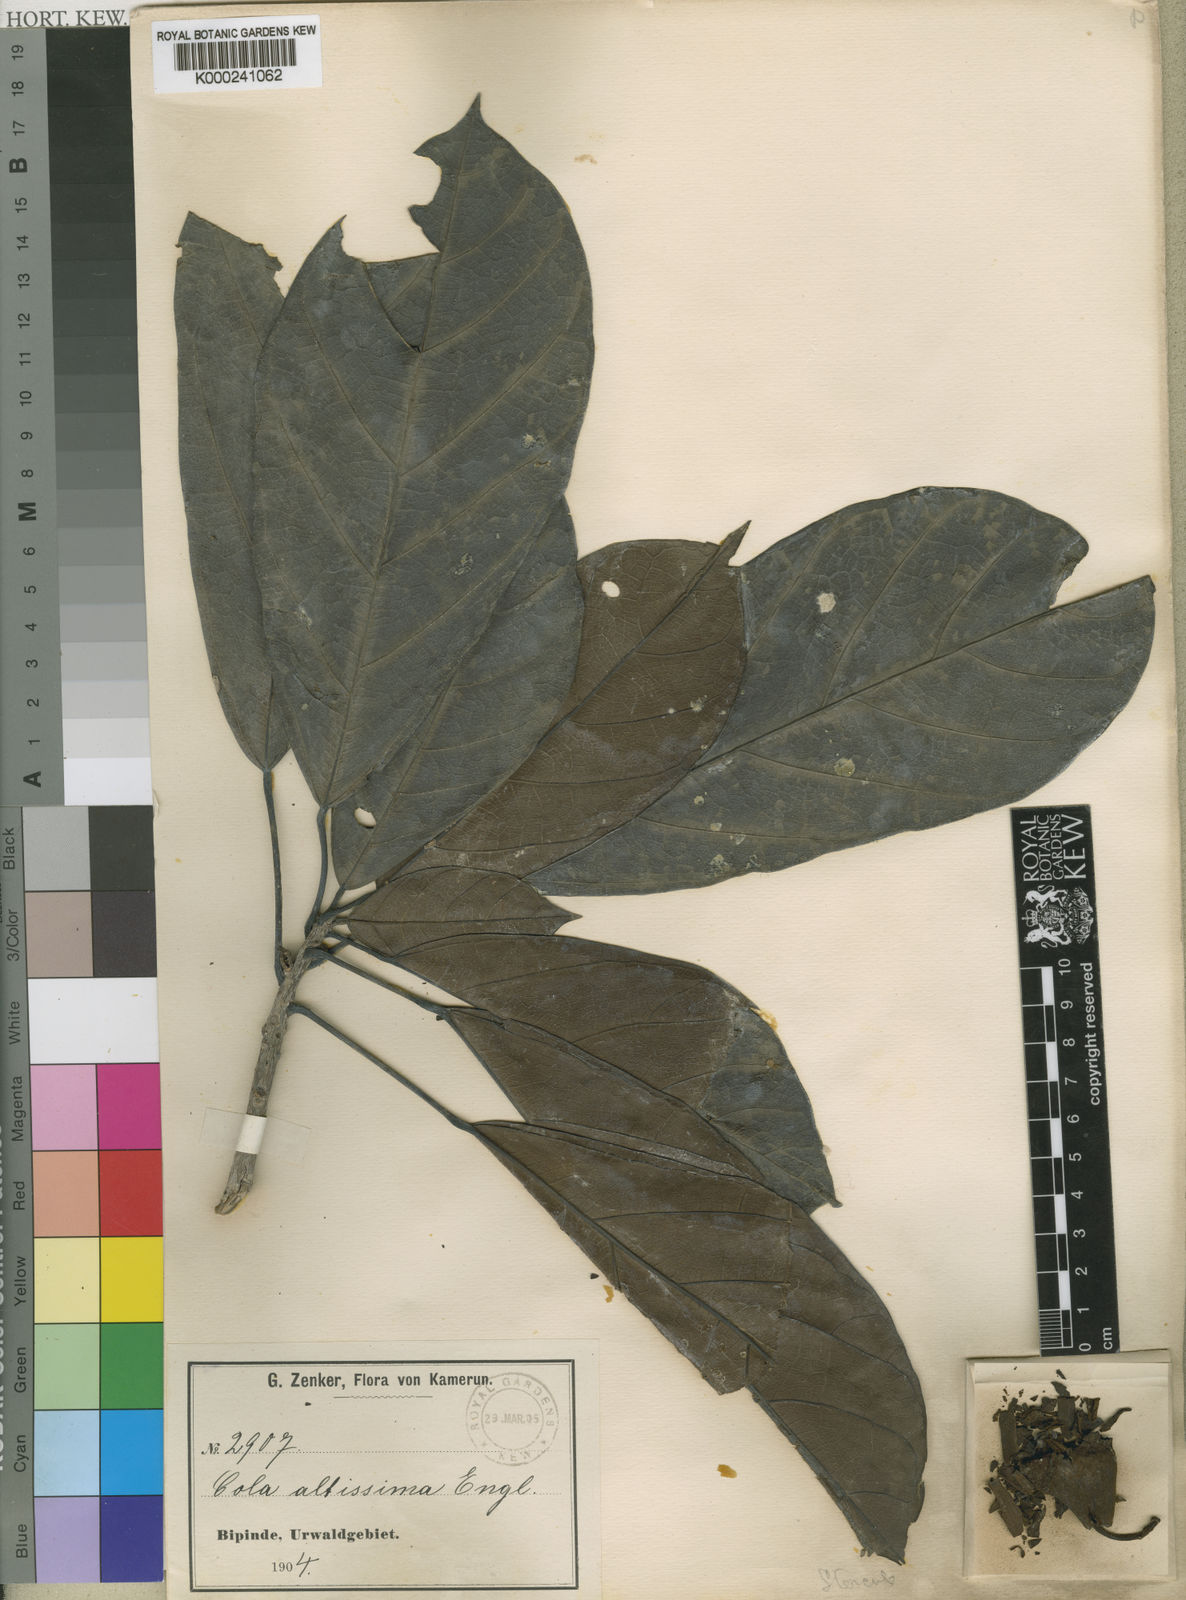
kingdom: Plantae
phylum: Tracheophyta
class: Magnoliopsida
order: Malvales
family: Malvaceae
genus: Cola
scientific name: Cola altissima
